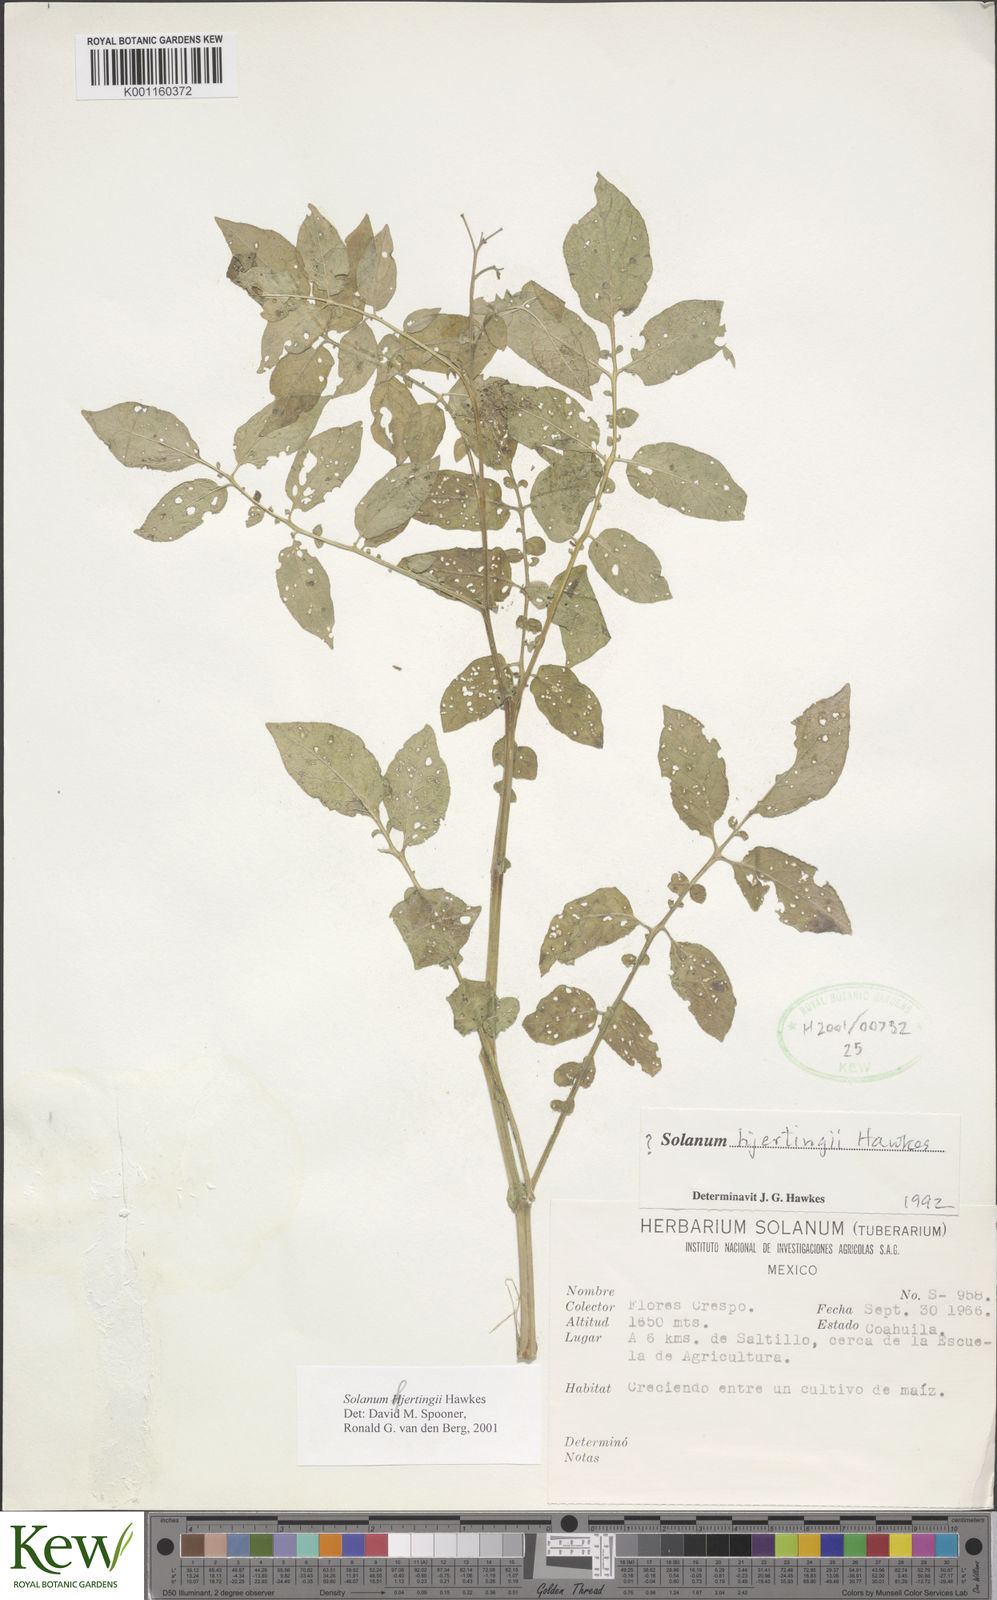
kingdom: Plantae
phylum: Tracheophyta
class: Magnoliopsida
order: Solanales
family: Solanaceae
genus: Solanum
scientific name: Solanum hjertingii
